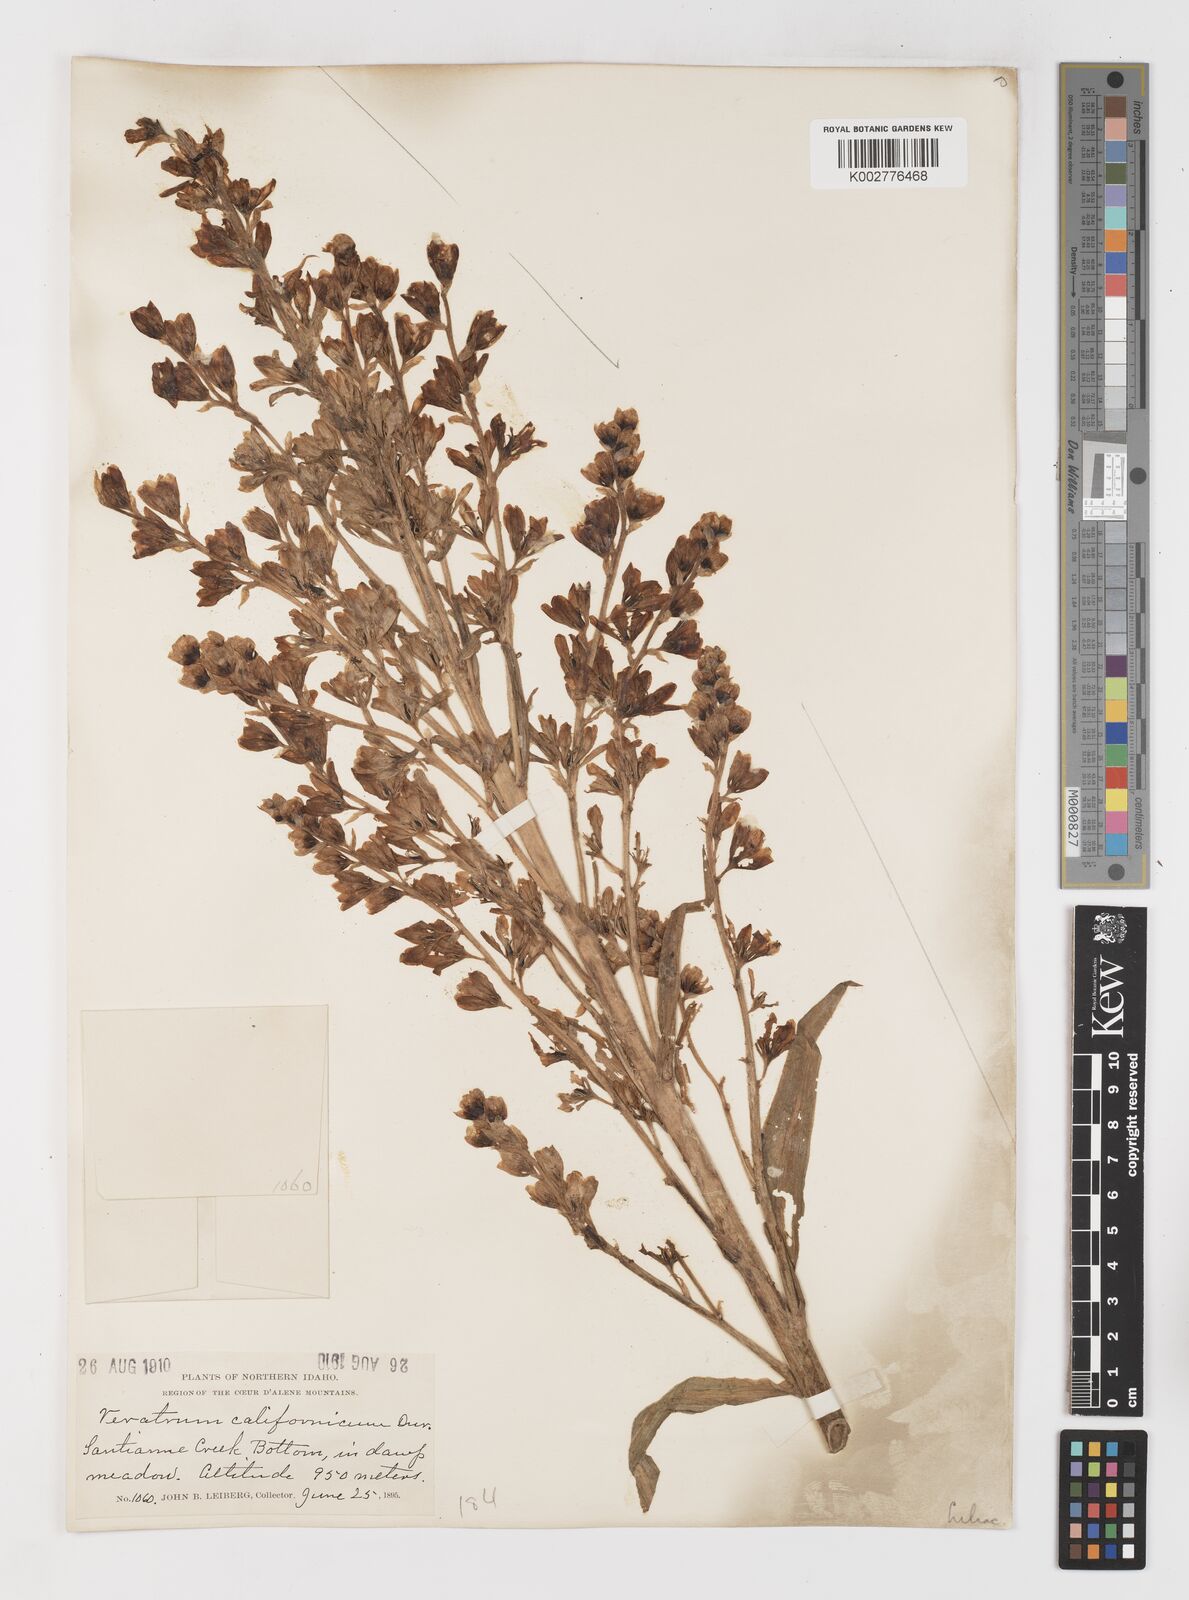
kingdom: Plantae
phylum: Tracheophyta
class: Liliopsida
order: Liliales
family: Melanthiaceae
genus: Veratrum
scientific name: Veratrum californicum
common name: California veratrum
